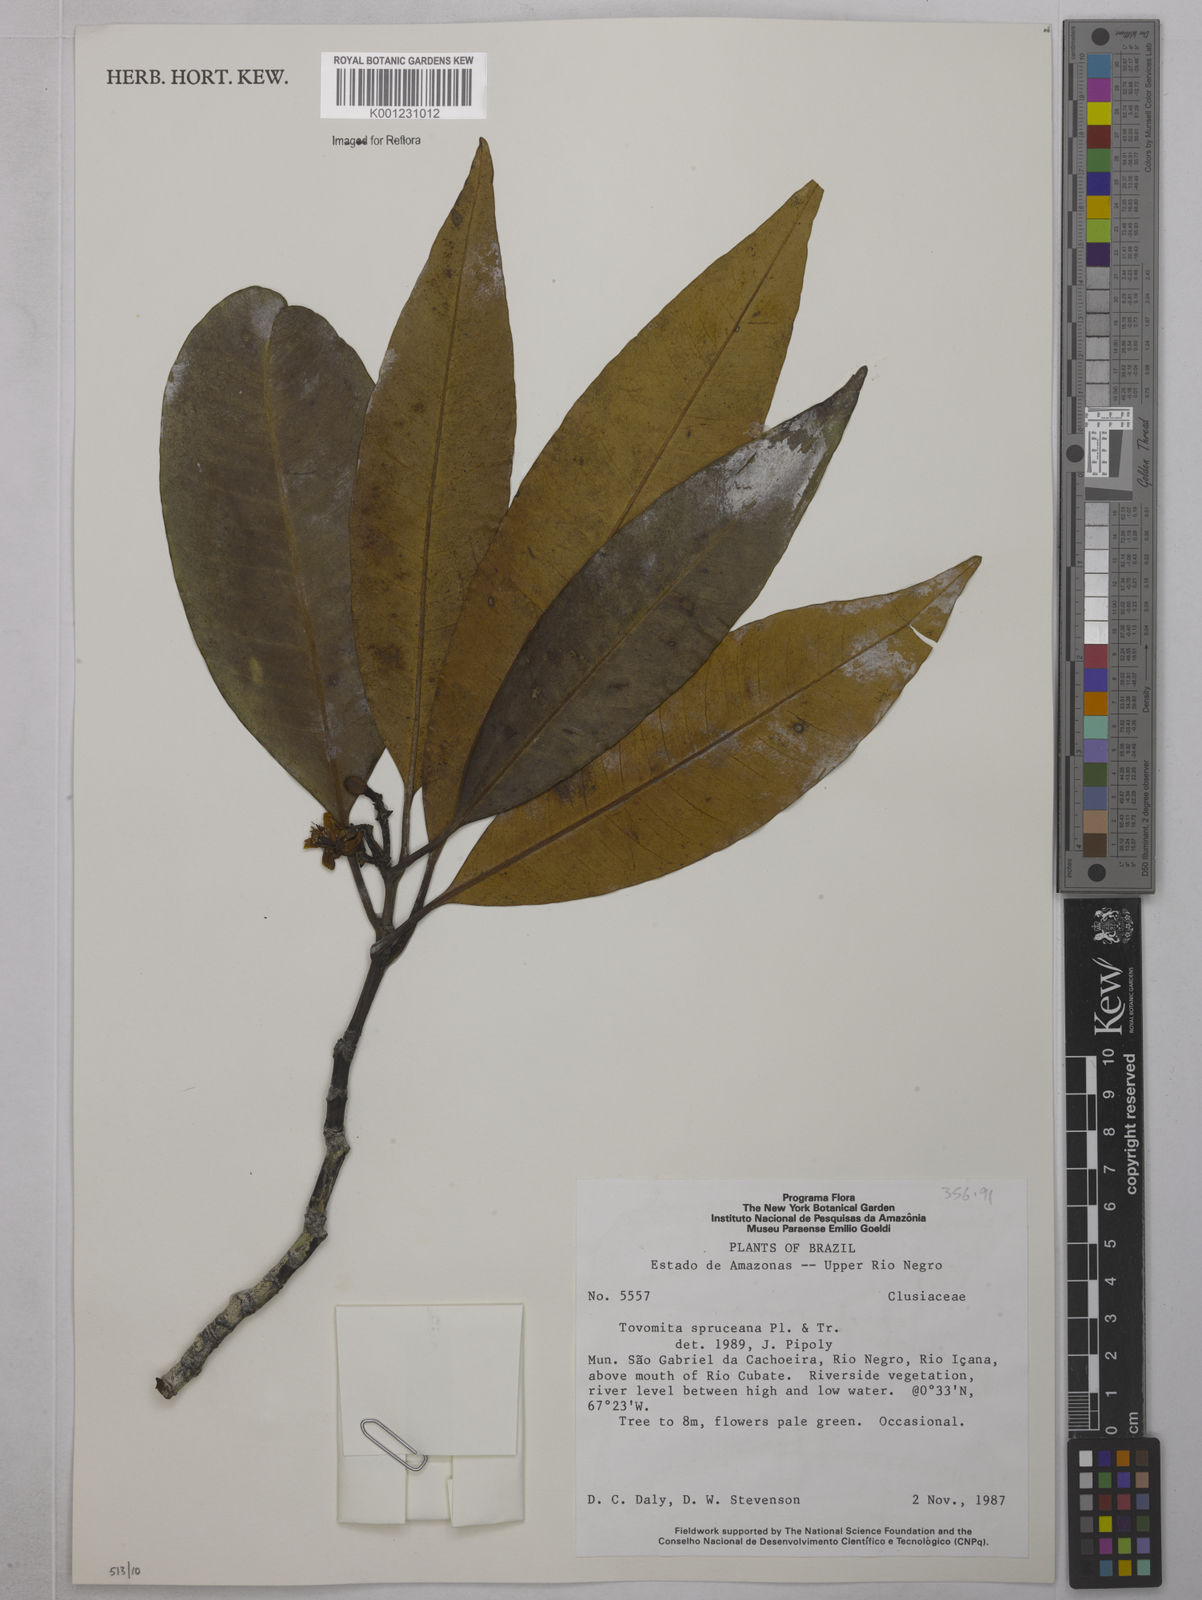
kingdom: Plantae
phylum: Tracheophyta
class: Magnoliopsida
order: Malpighiales
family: Clusiaceae
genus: Tovomita
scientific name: Tovomita spruceana
